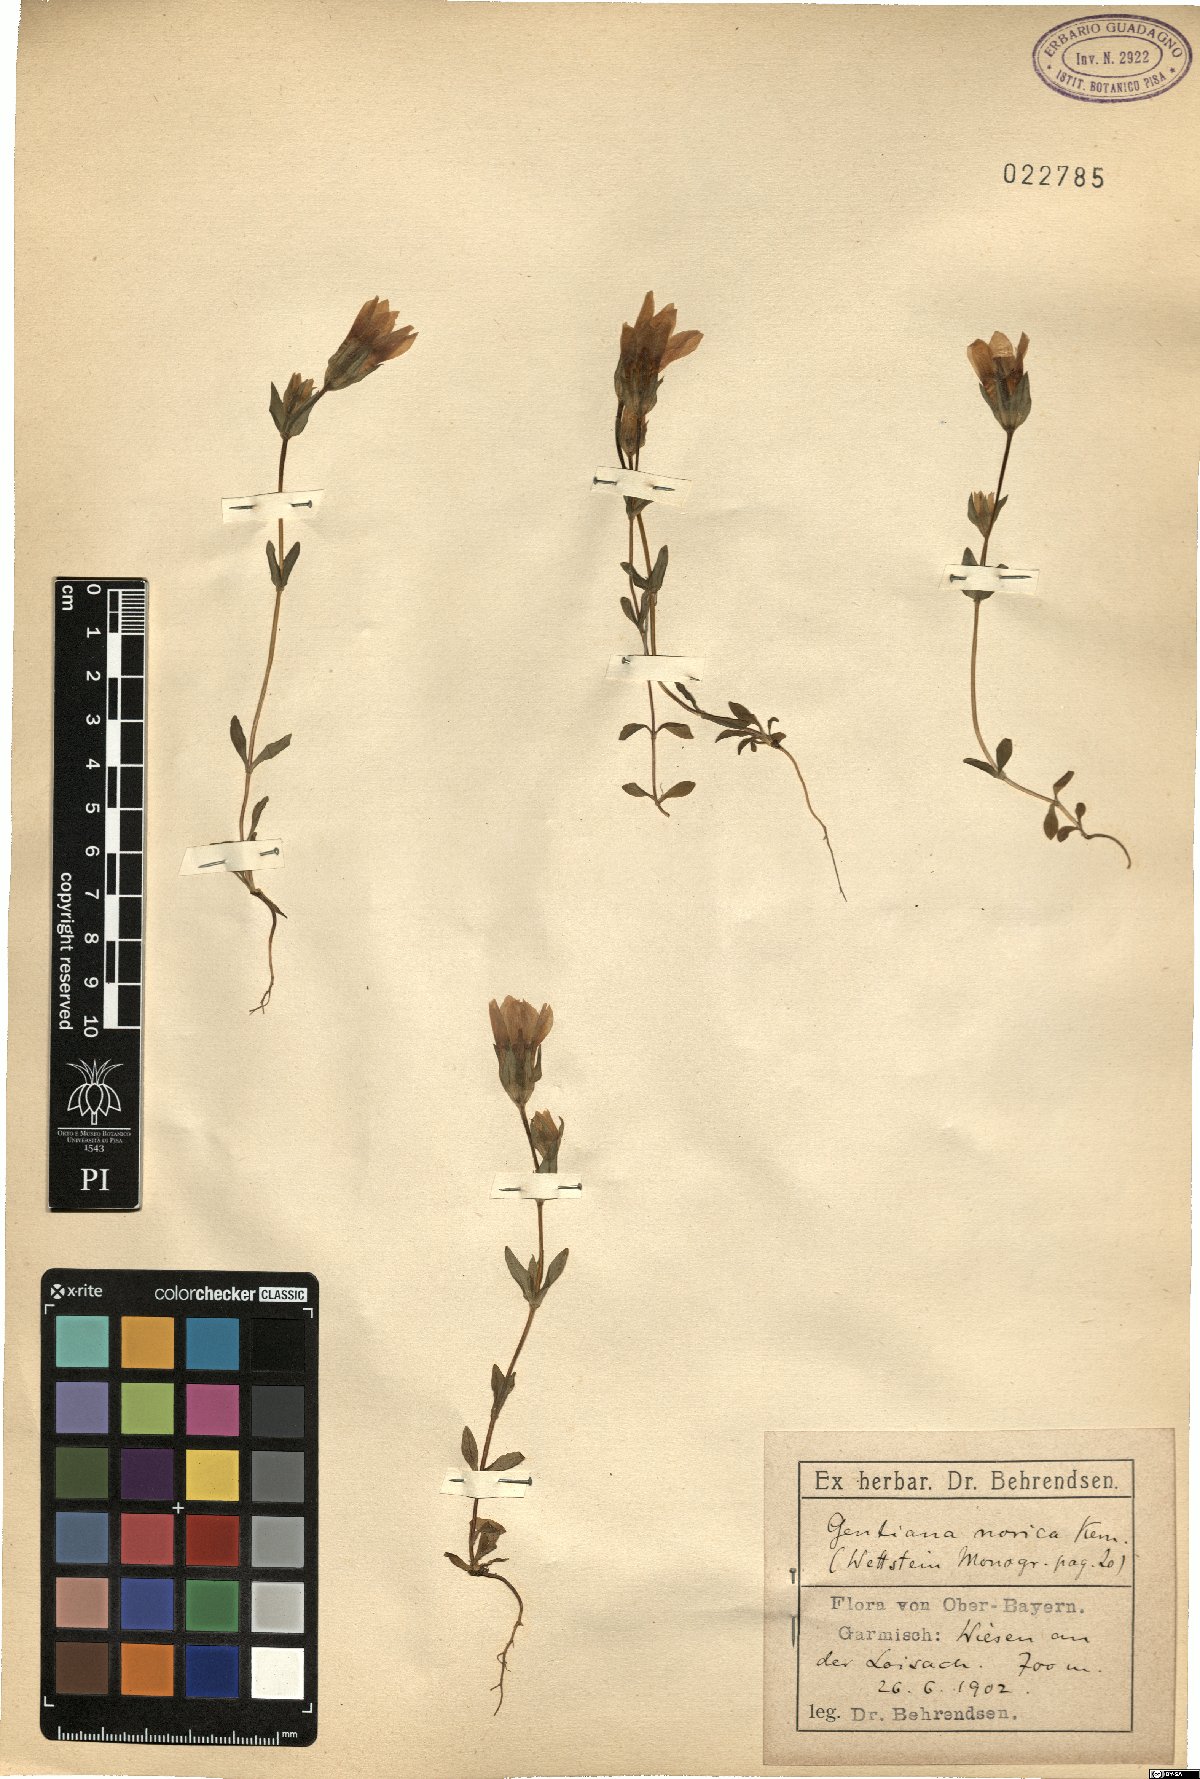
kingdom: Plantae
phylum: Tracheophyta
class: Magnoliopsida
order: Gentianales
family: Gentianaceae
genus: Gentianella
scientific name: Gentianella obtusifolia
